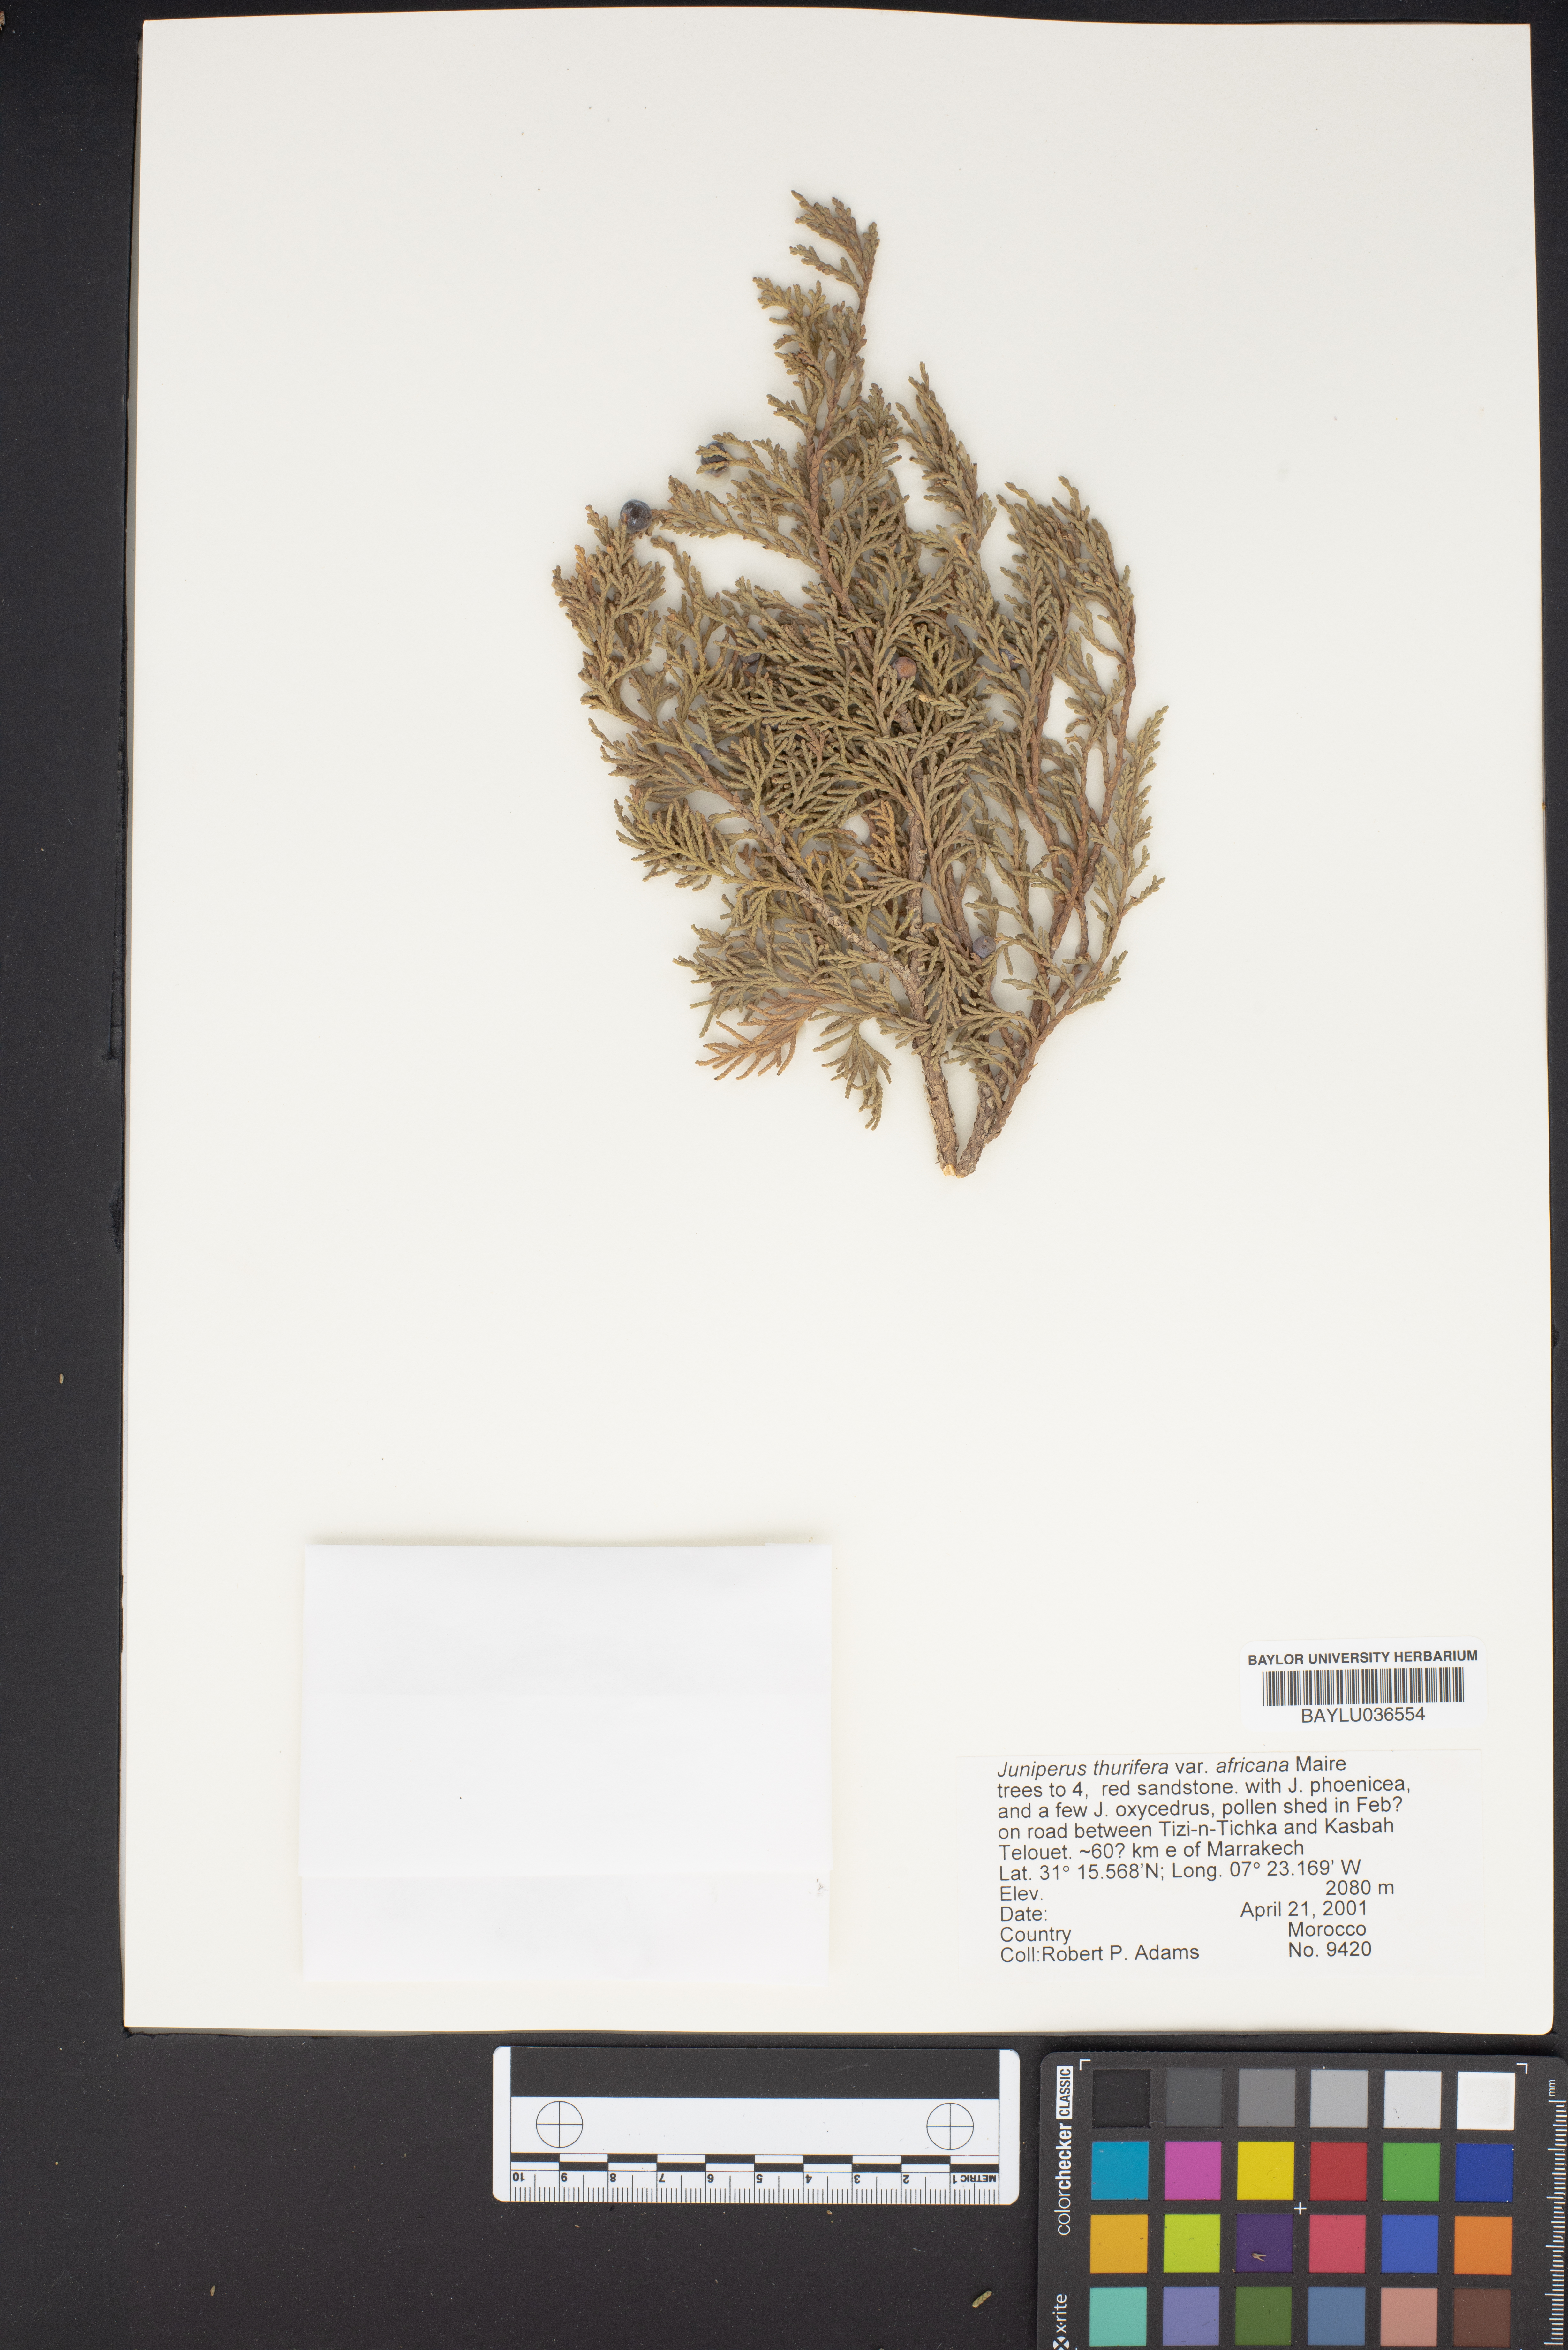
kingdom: Plantae
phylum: Tracheophyta
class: Pinopsida
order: Pinales
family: Cupressaceae
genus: Juniperus
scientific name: Juniperus thurifera
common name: Incense juniper
